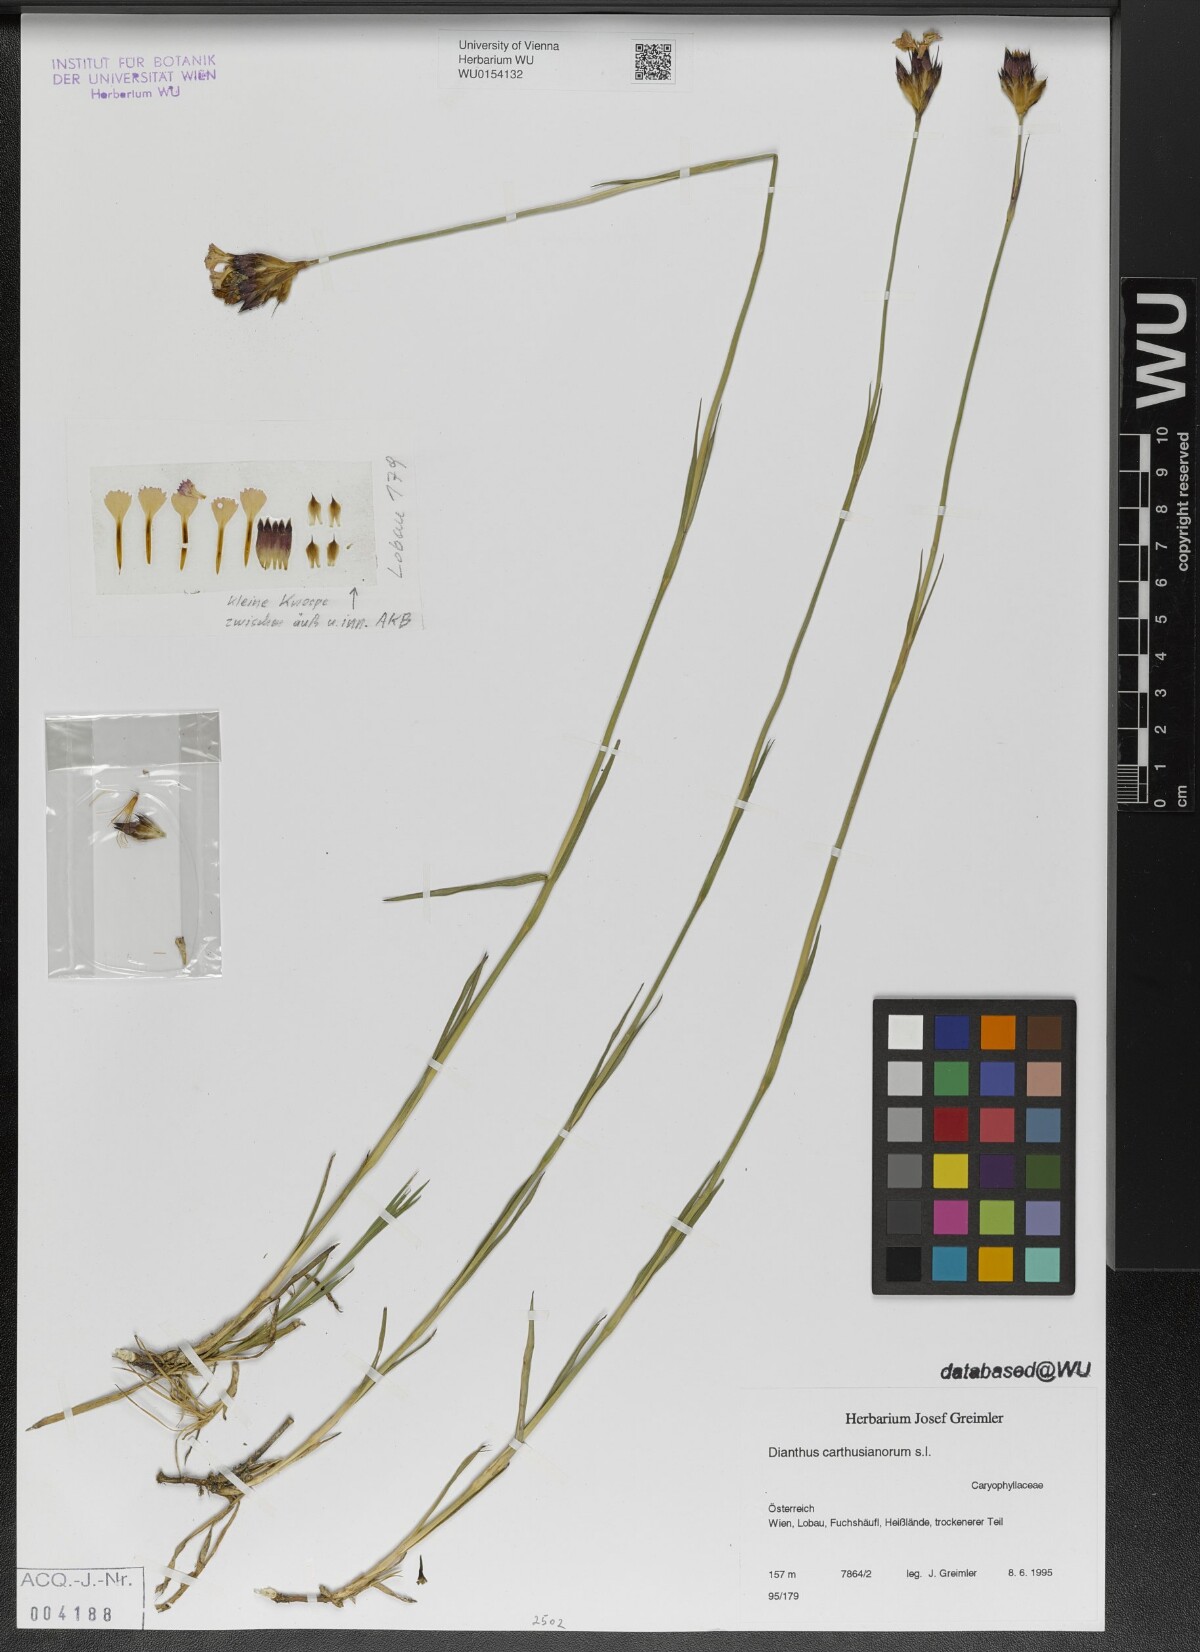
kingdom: Plantae
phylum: Tracheophyta
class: Magnoliopsida
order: Caryophyllales
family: Caryophyllaceae
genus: Dianthus
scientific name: Dianthus carthusianorum
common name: Carthusian pink
